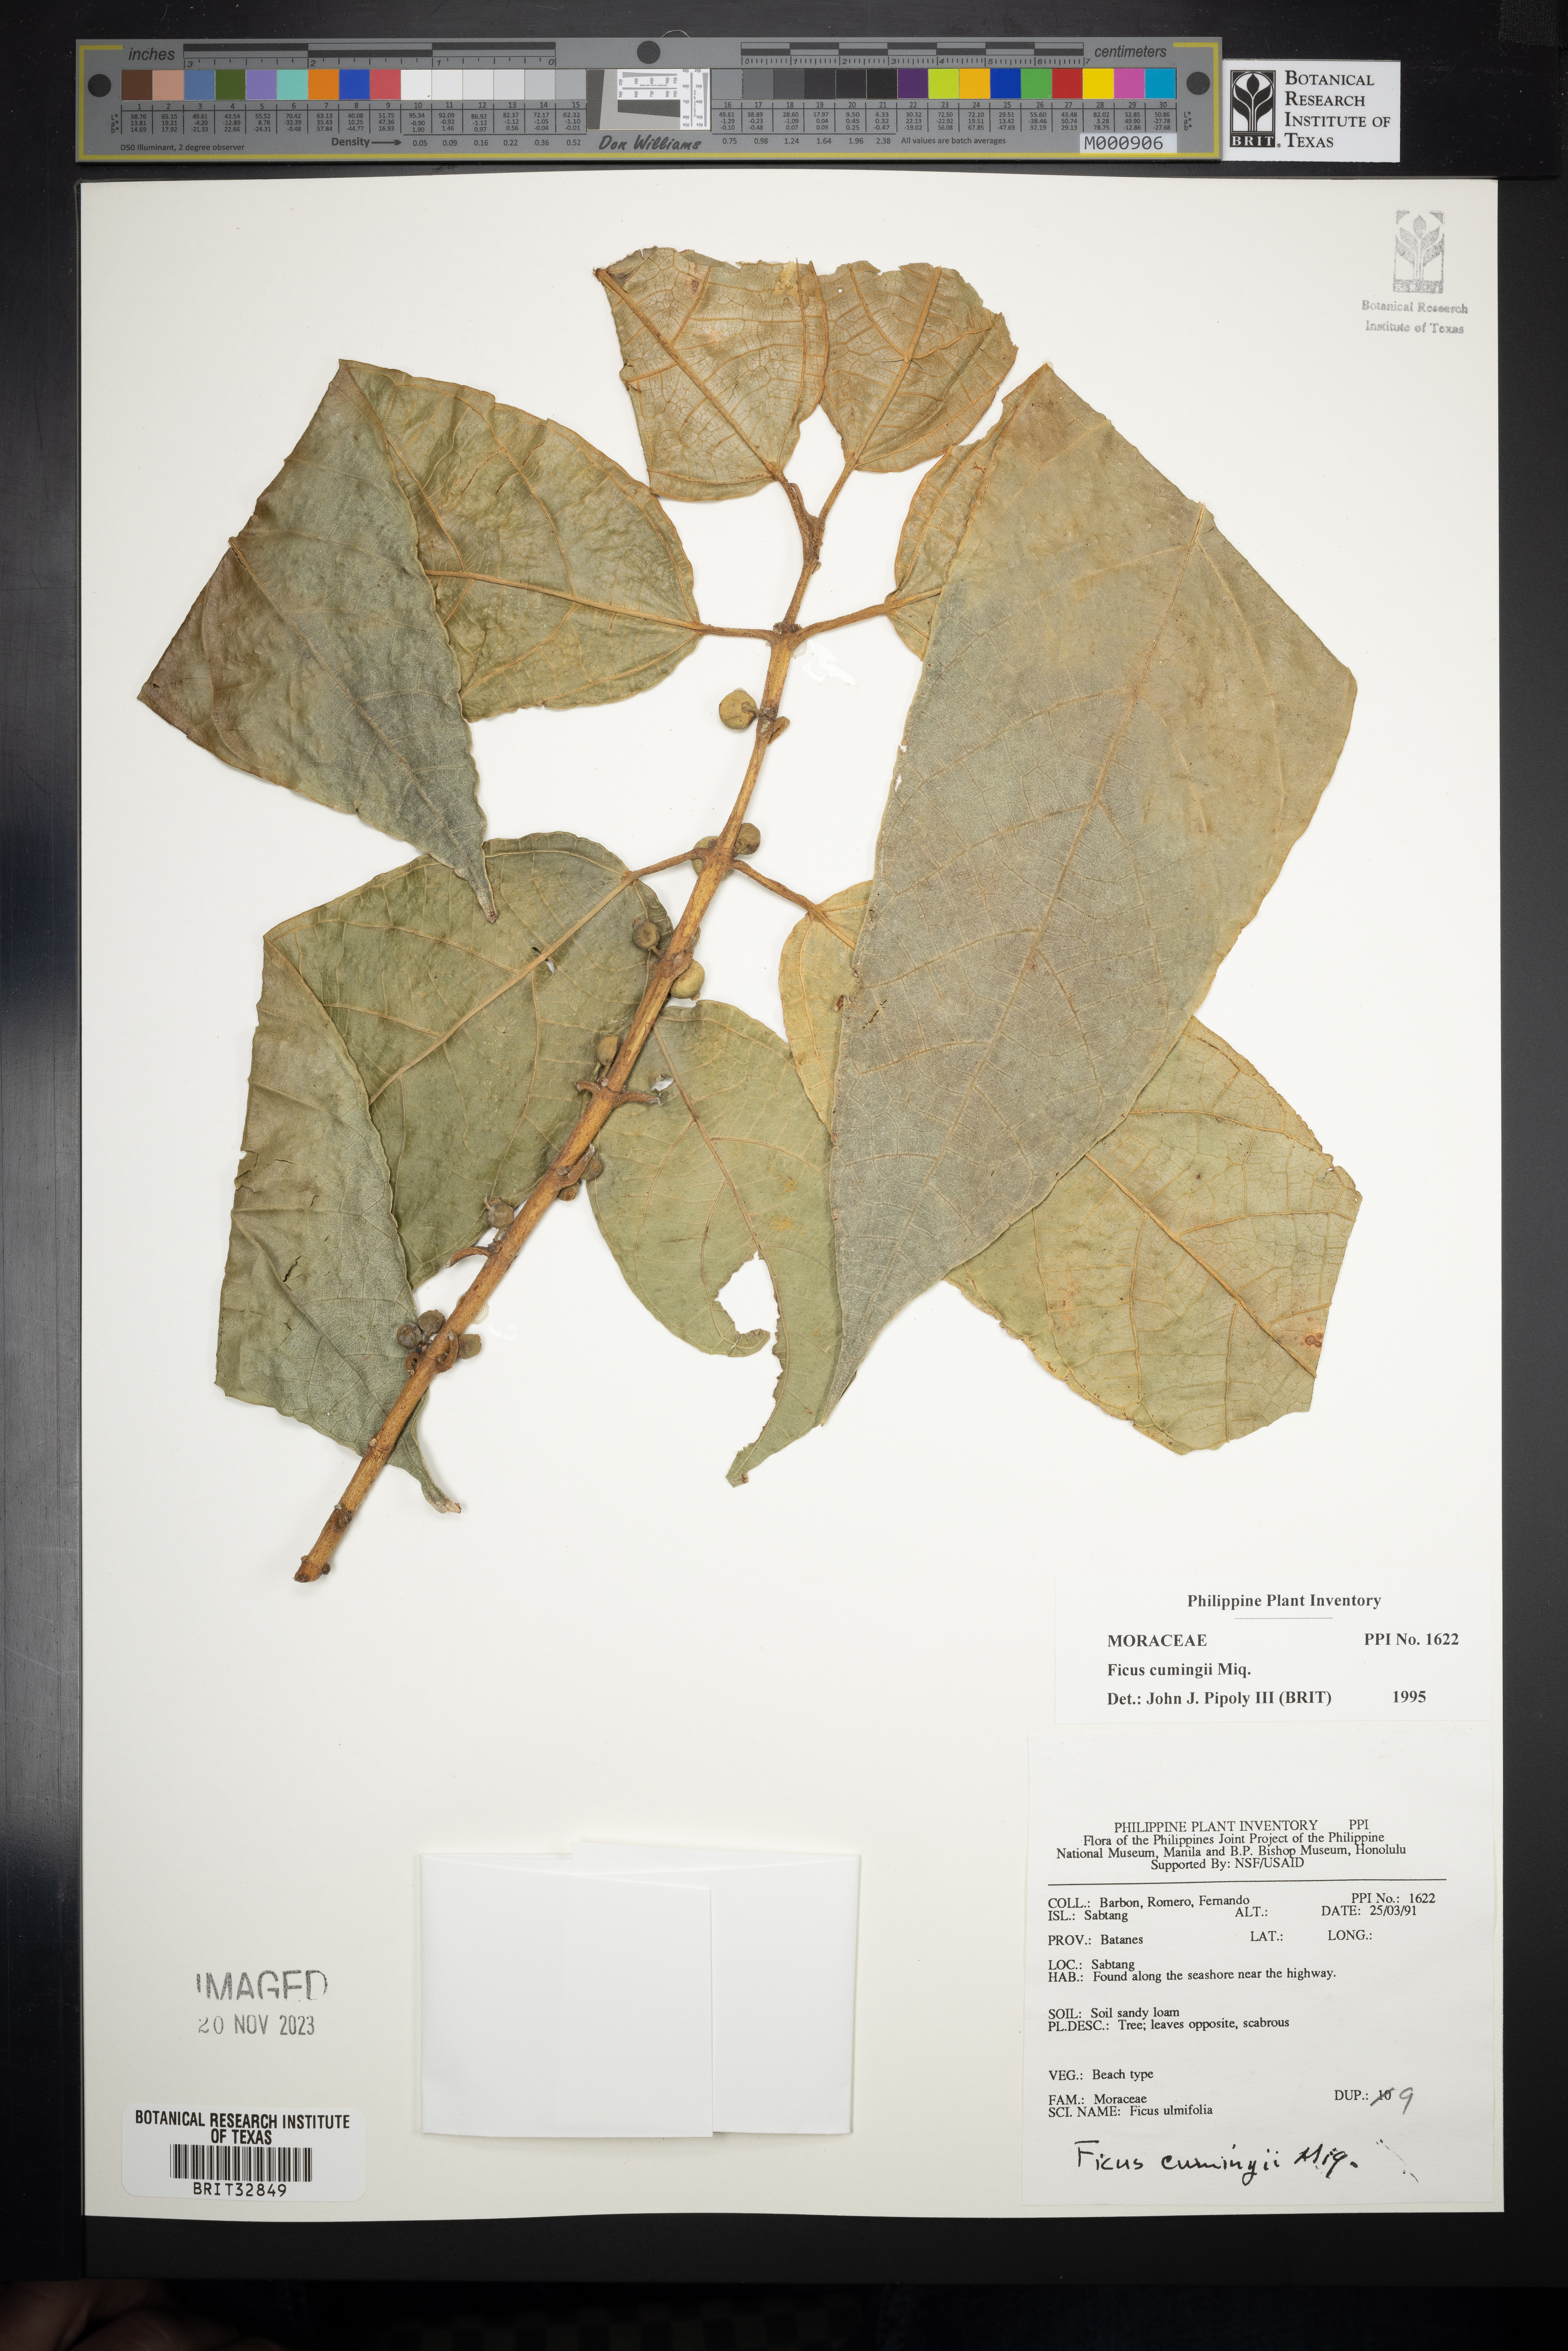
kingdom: Plantae
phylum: Tracheophyta
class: Magnoliopsida
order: Rosales
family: Moraceae
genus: Ficus
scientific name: Ficus cumingii
